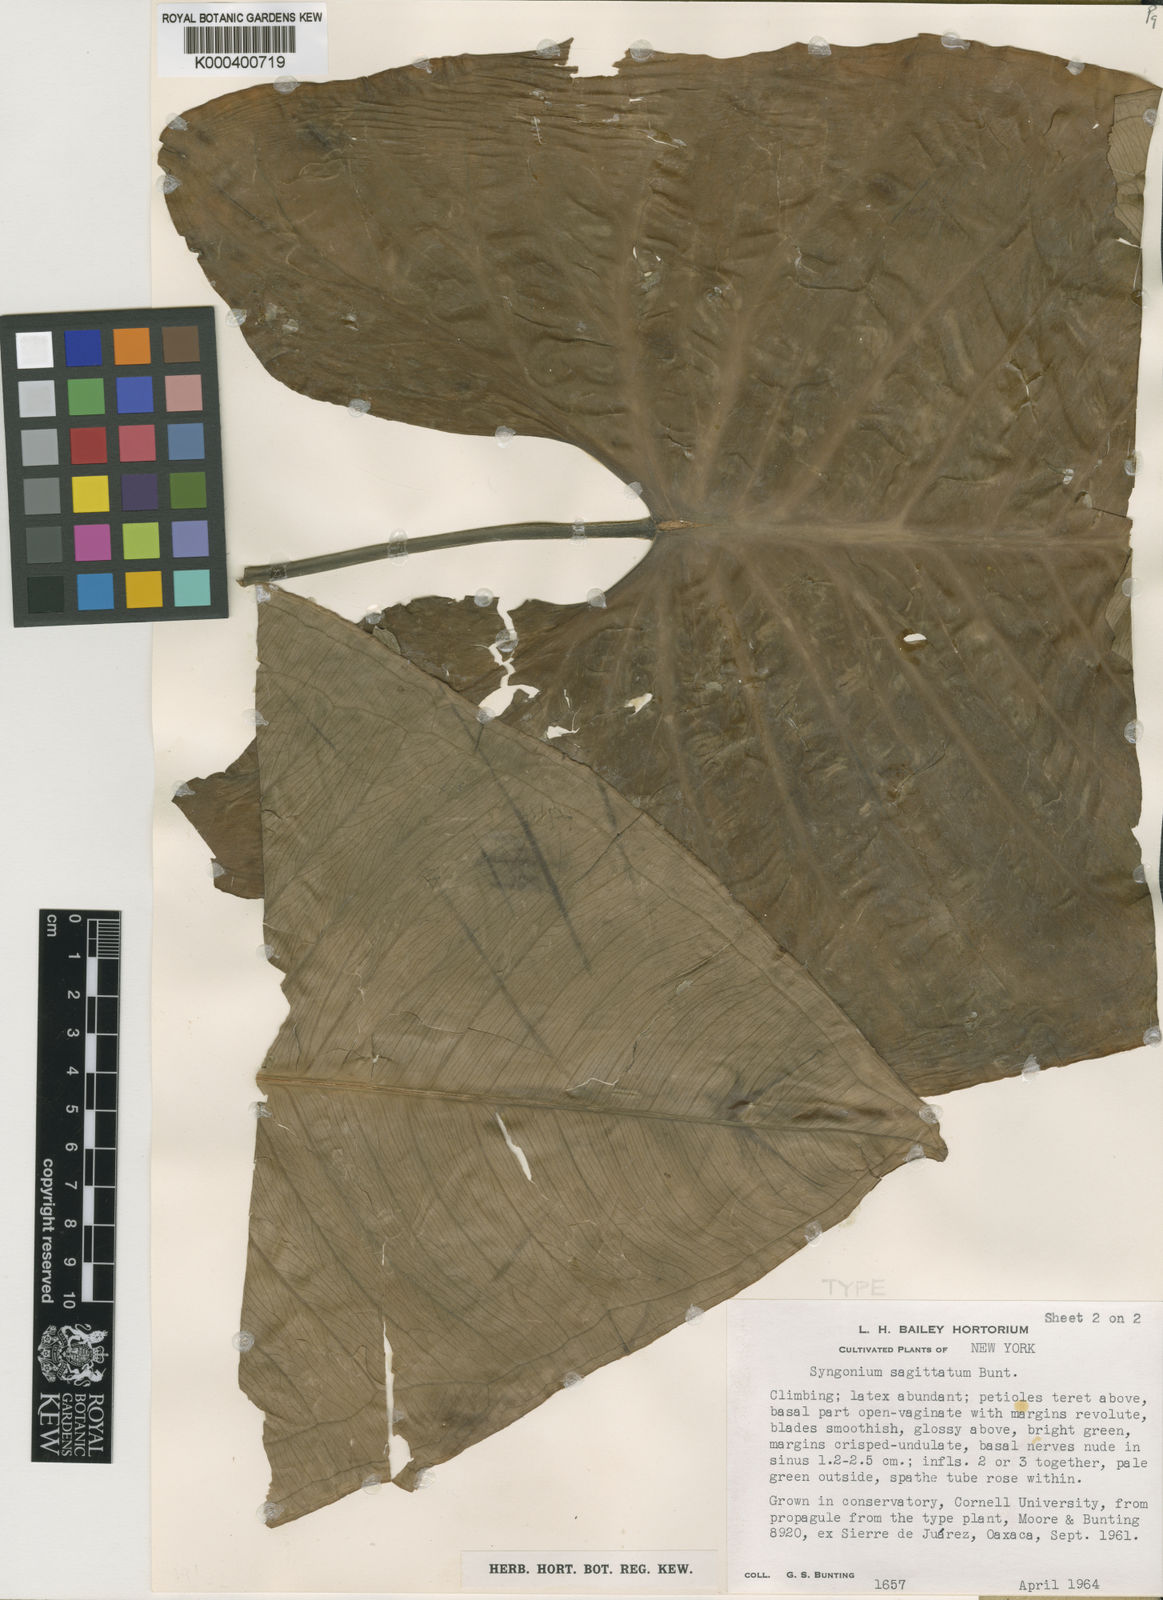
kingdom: Plantae
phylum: Tracheophyta
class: Liliopsida
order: Alismatales
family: Araceae
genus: Syngonium
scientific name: Syngonium sagittatum
